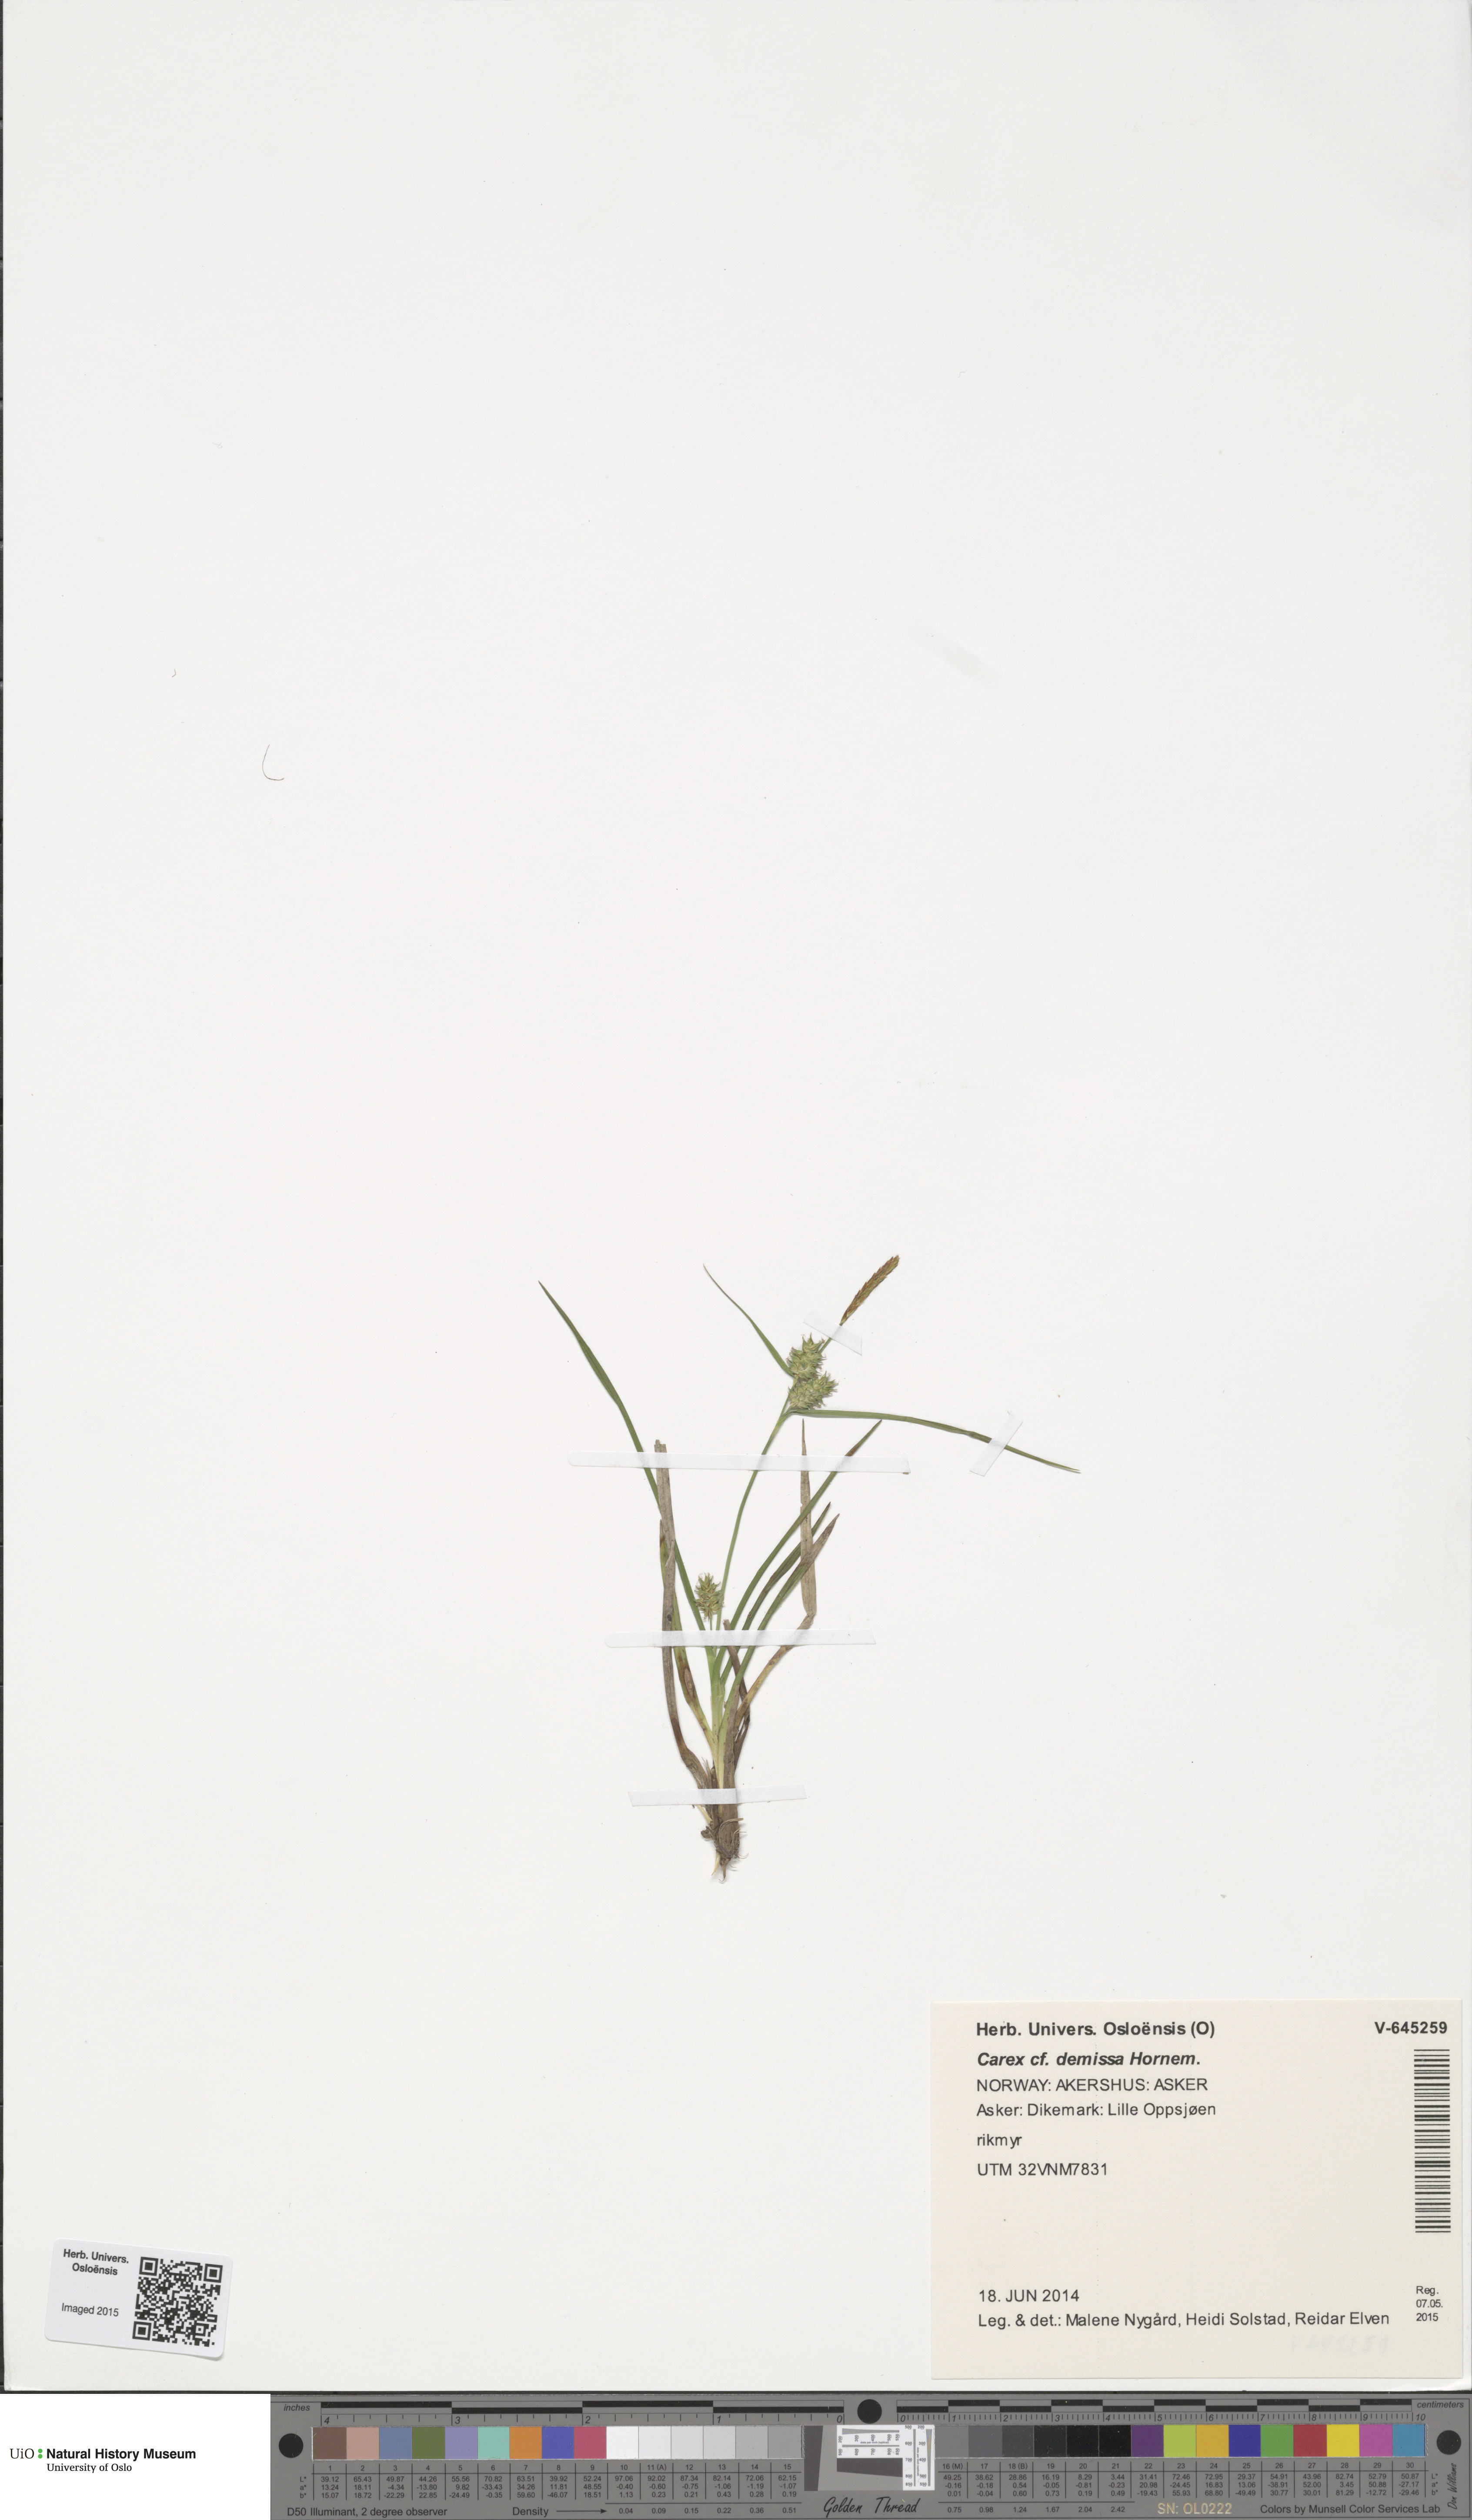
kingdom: Plantae
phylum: Tracheophyta
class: Liliopsida
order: Poales
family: Cyperaceae
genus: Carex
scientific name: Carex demissa
